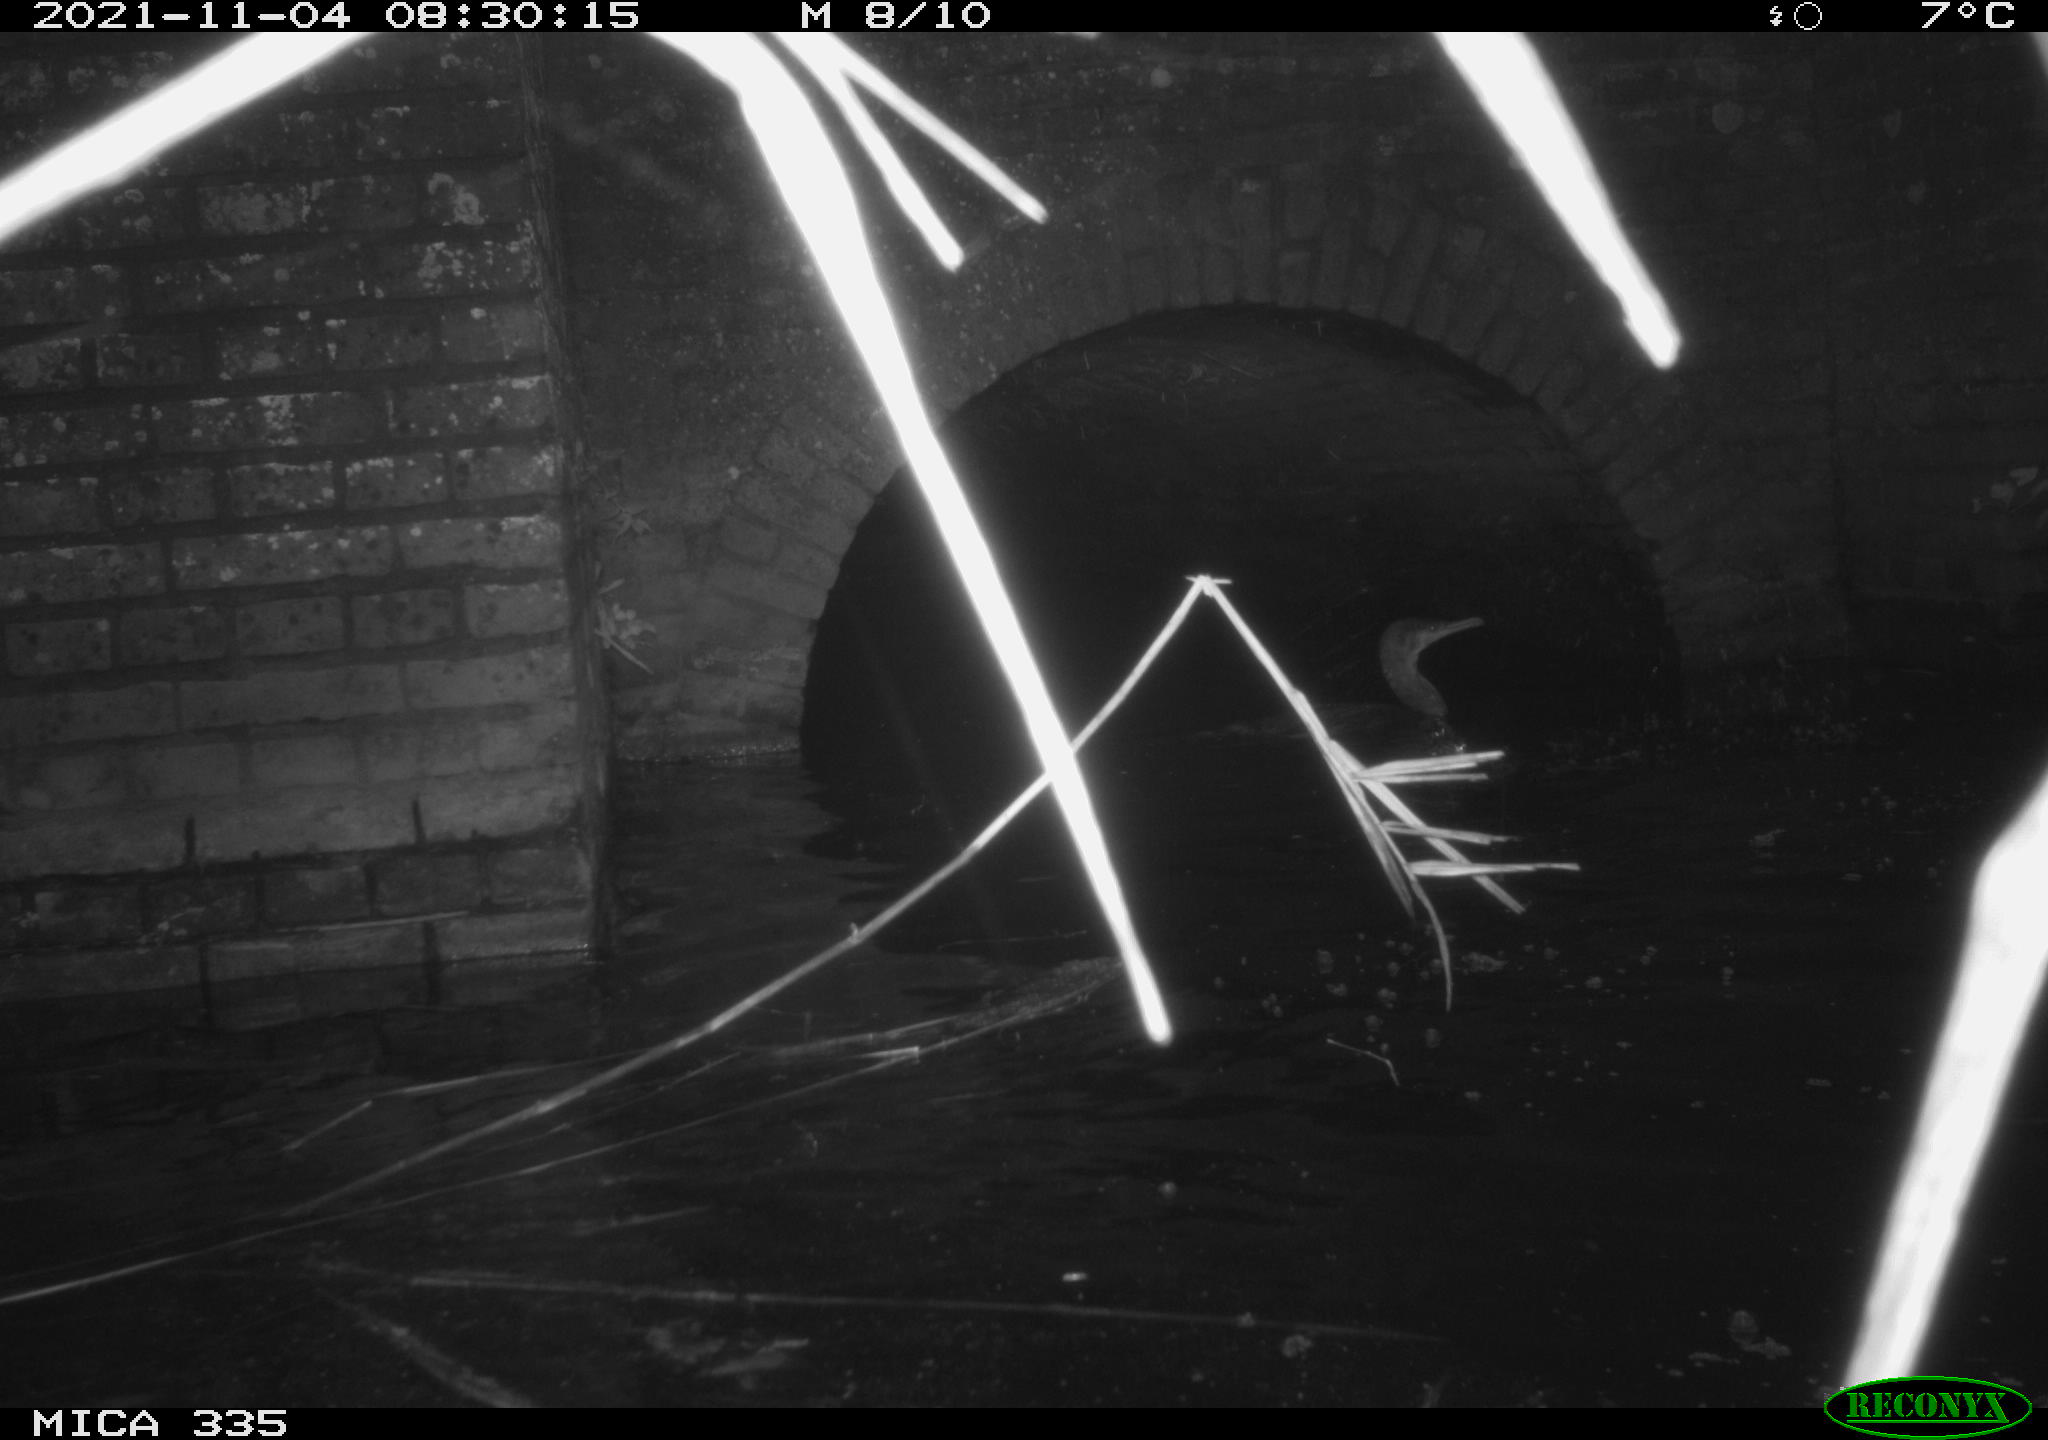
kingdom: Animalia
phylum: Chordata
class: Aves
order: Suliformes
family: Phalacrocoracidae
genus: Phalacrocorax
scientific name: Phalacrocorax carbo
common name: Great cormorant
